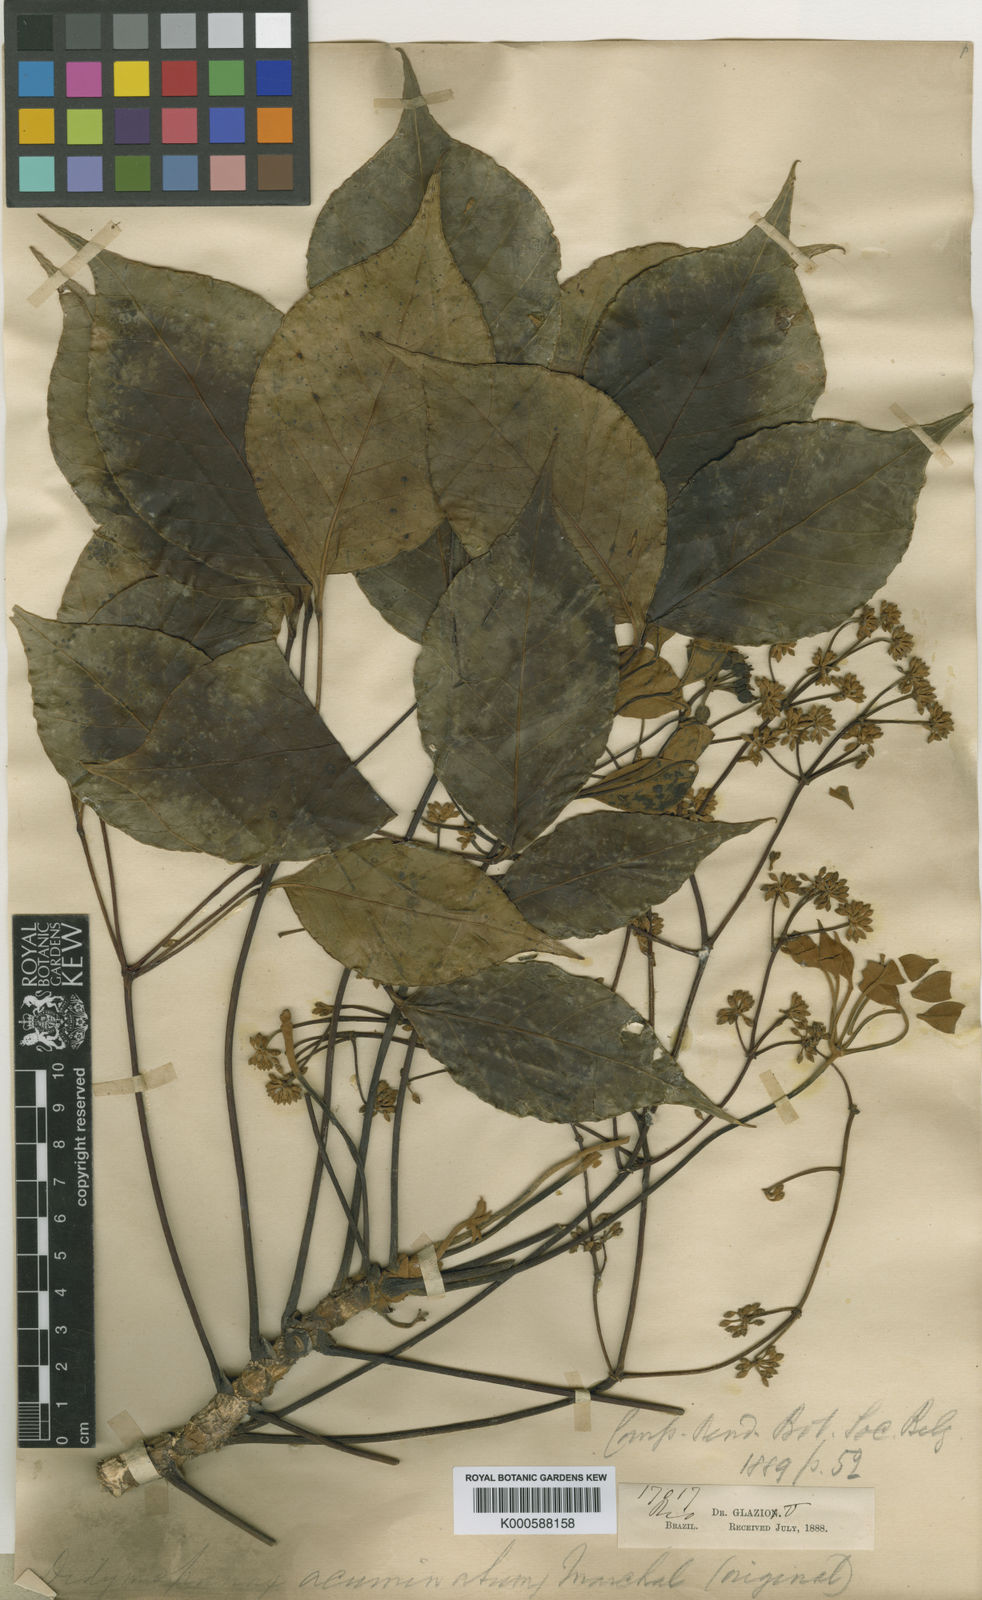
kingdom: Plantae
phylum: Tracheophyta
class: Magnoliopsida
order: Apiales
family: Araliaceae
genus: Sciodaphyllum
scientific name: Sciodaphyllum acuminatum
